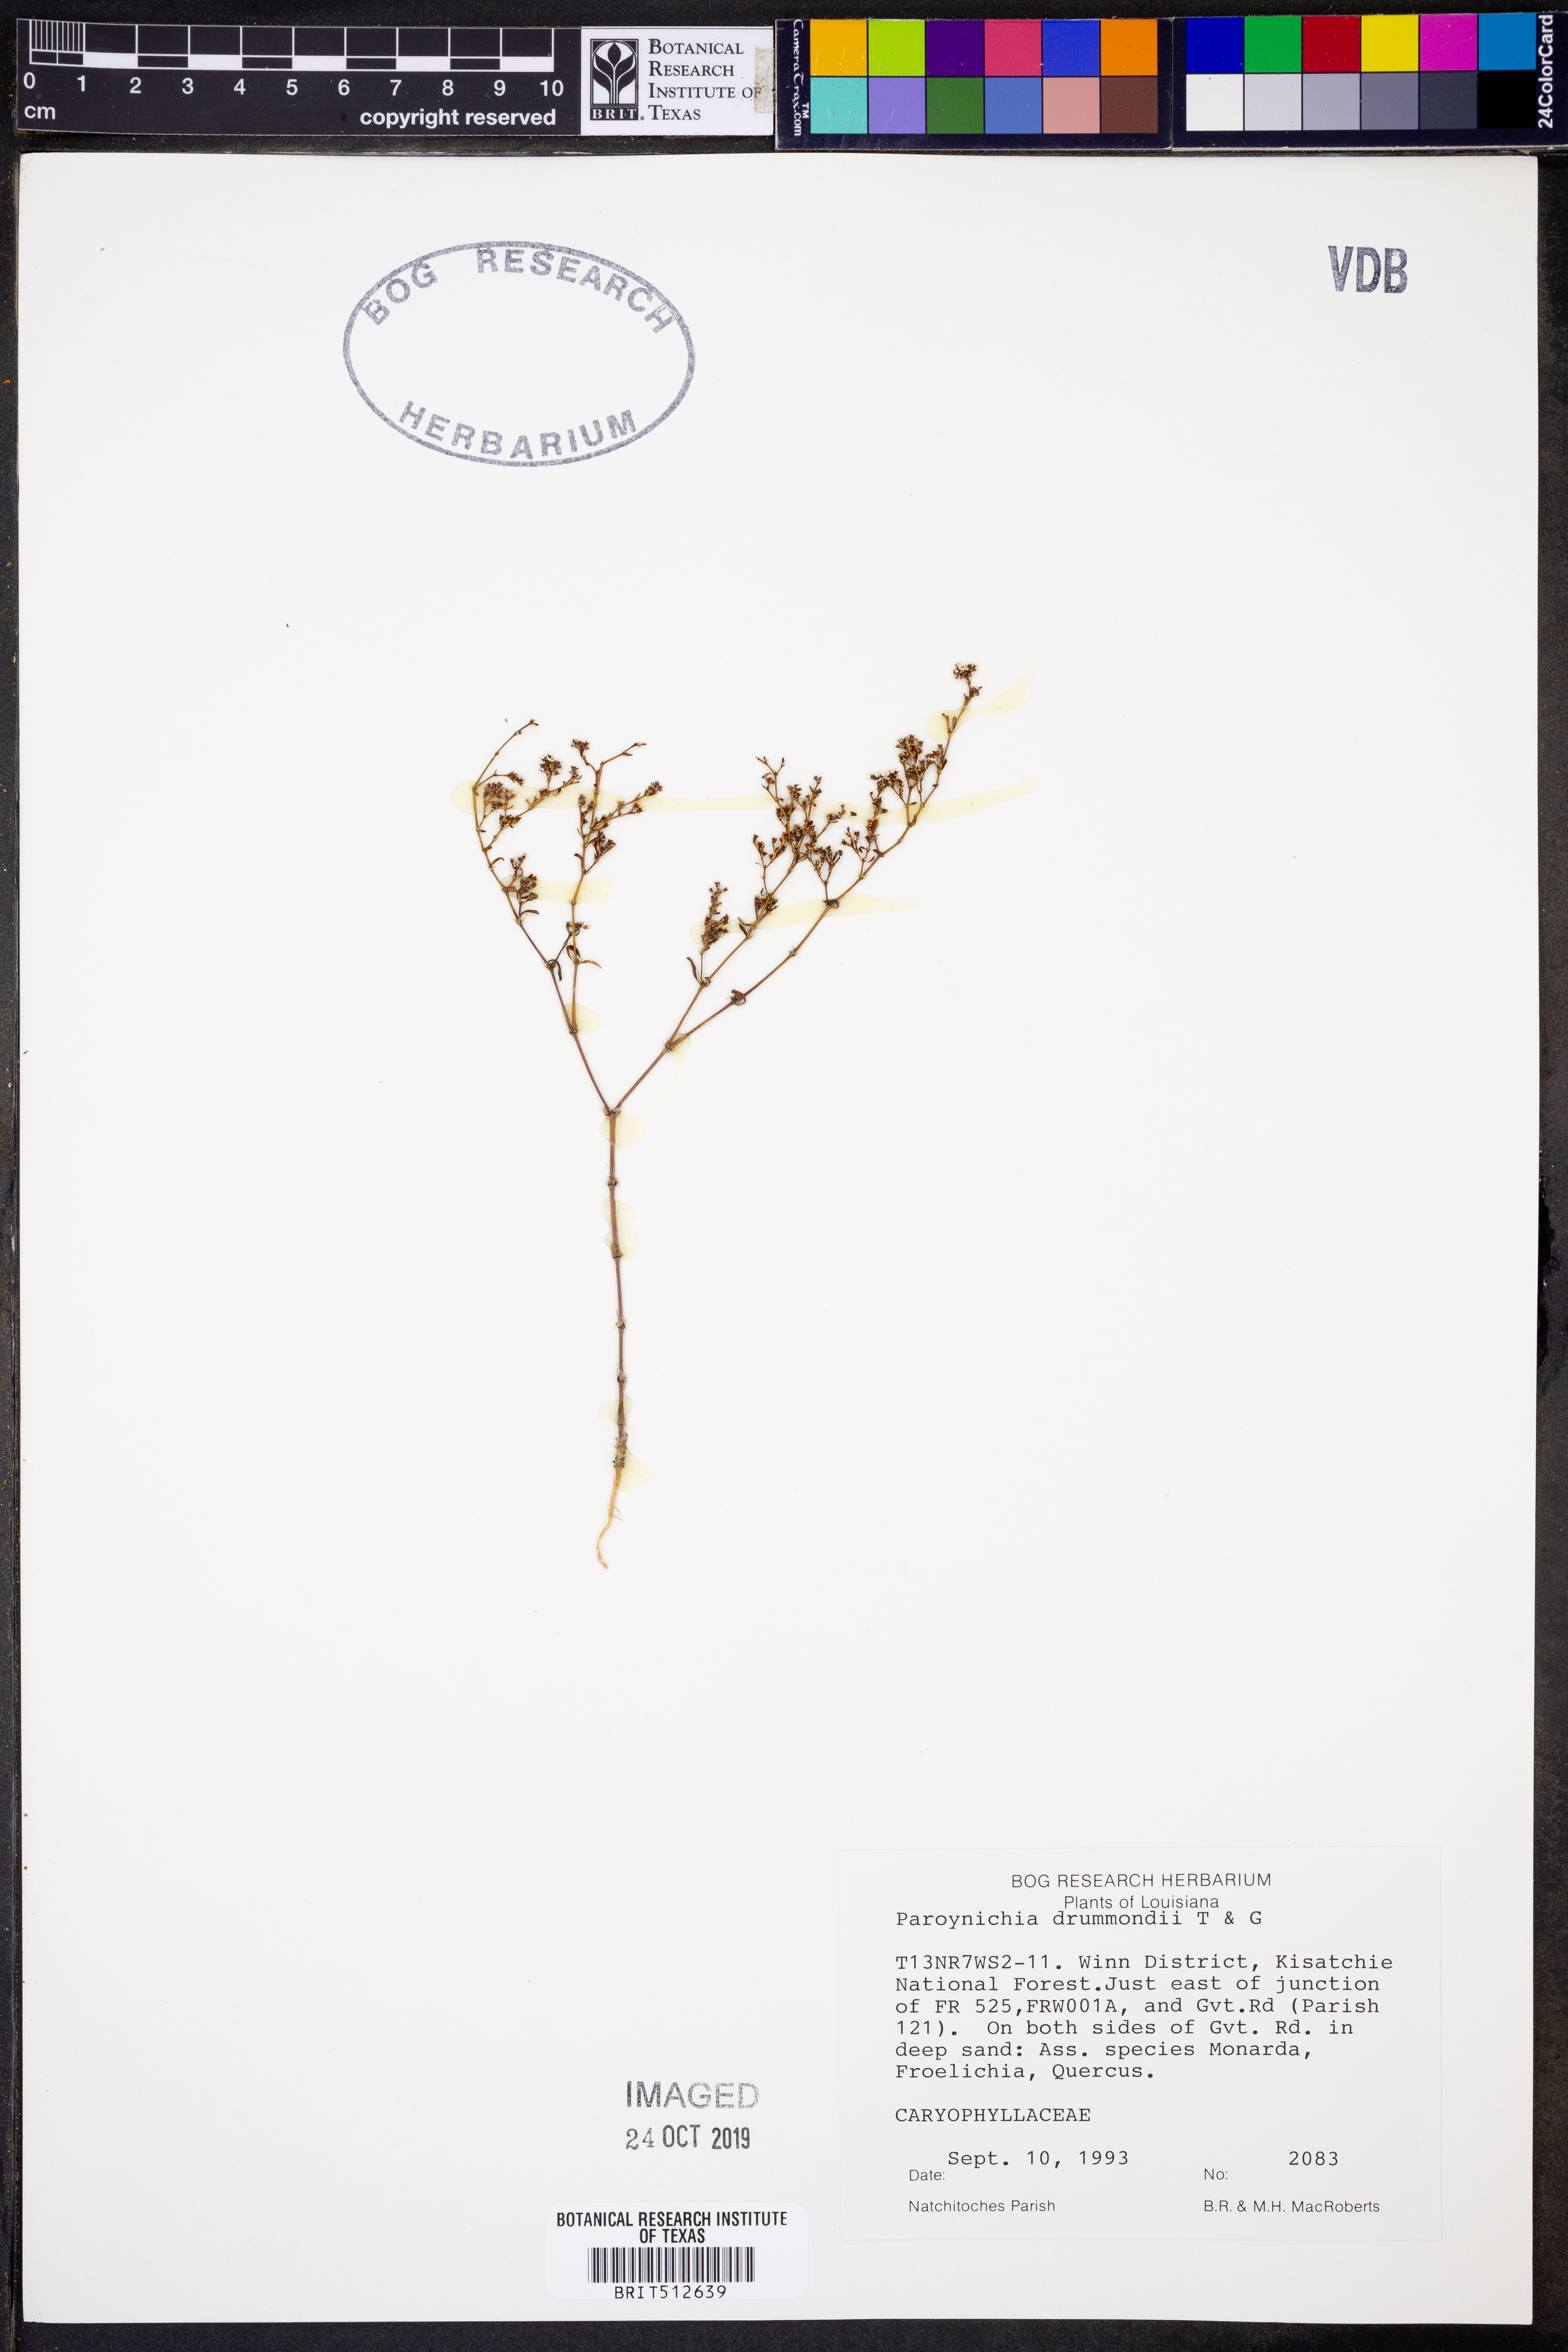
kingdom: Plantae
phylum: Tracheophyta
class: Magnoliopsida
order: Caryophyllales
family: Caryophyllaceae
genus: Paronychia
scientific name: Paronychia drummondii
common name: Drummond's nailwort
